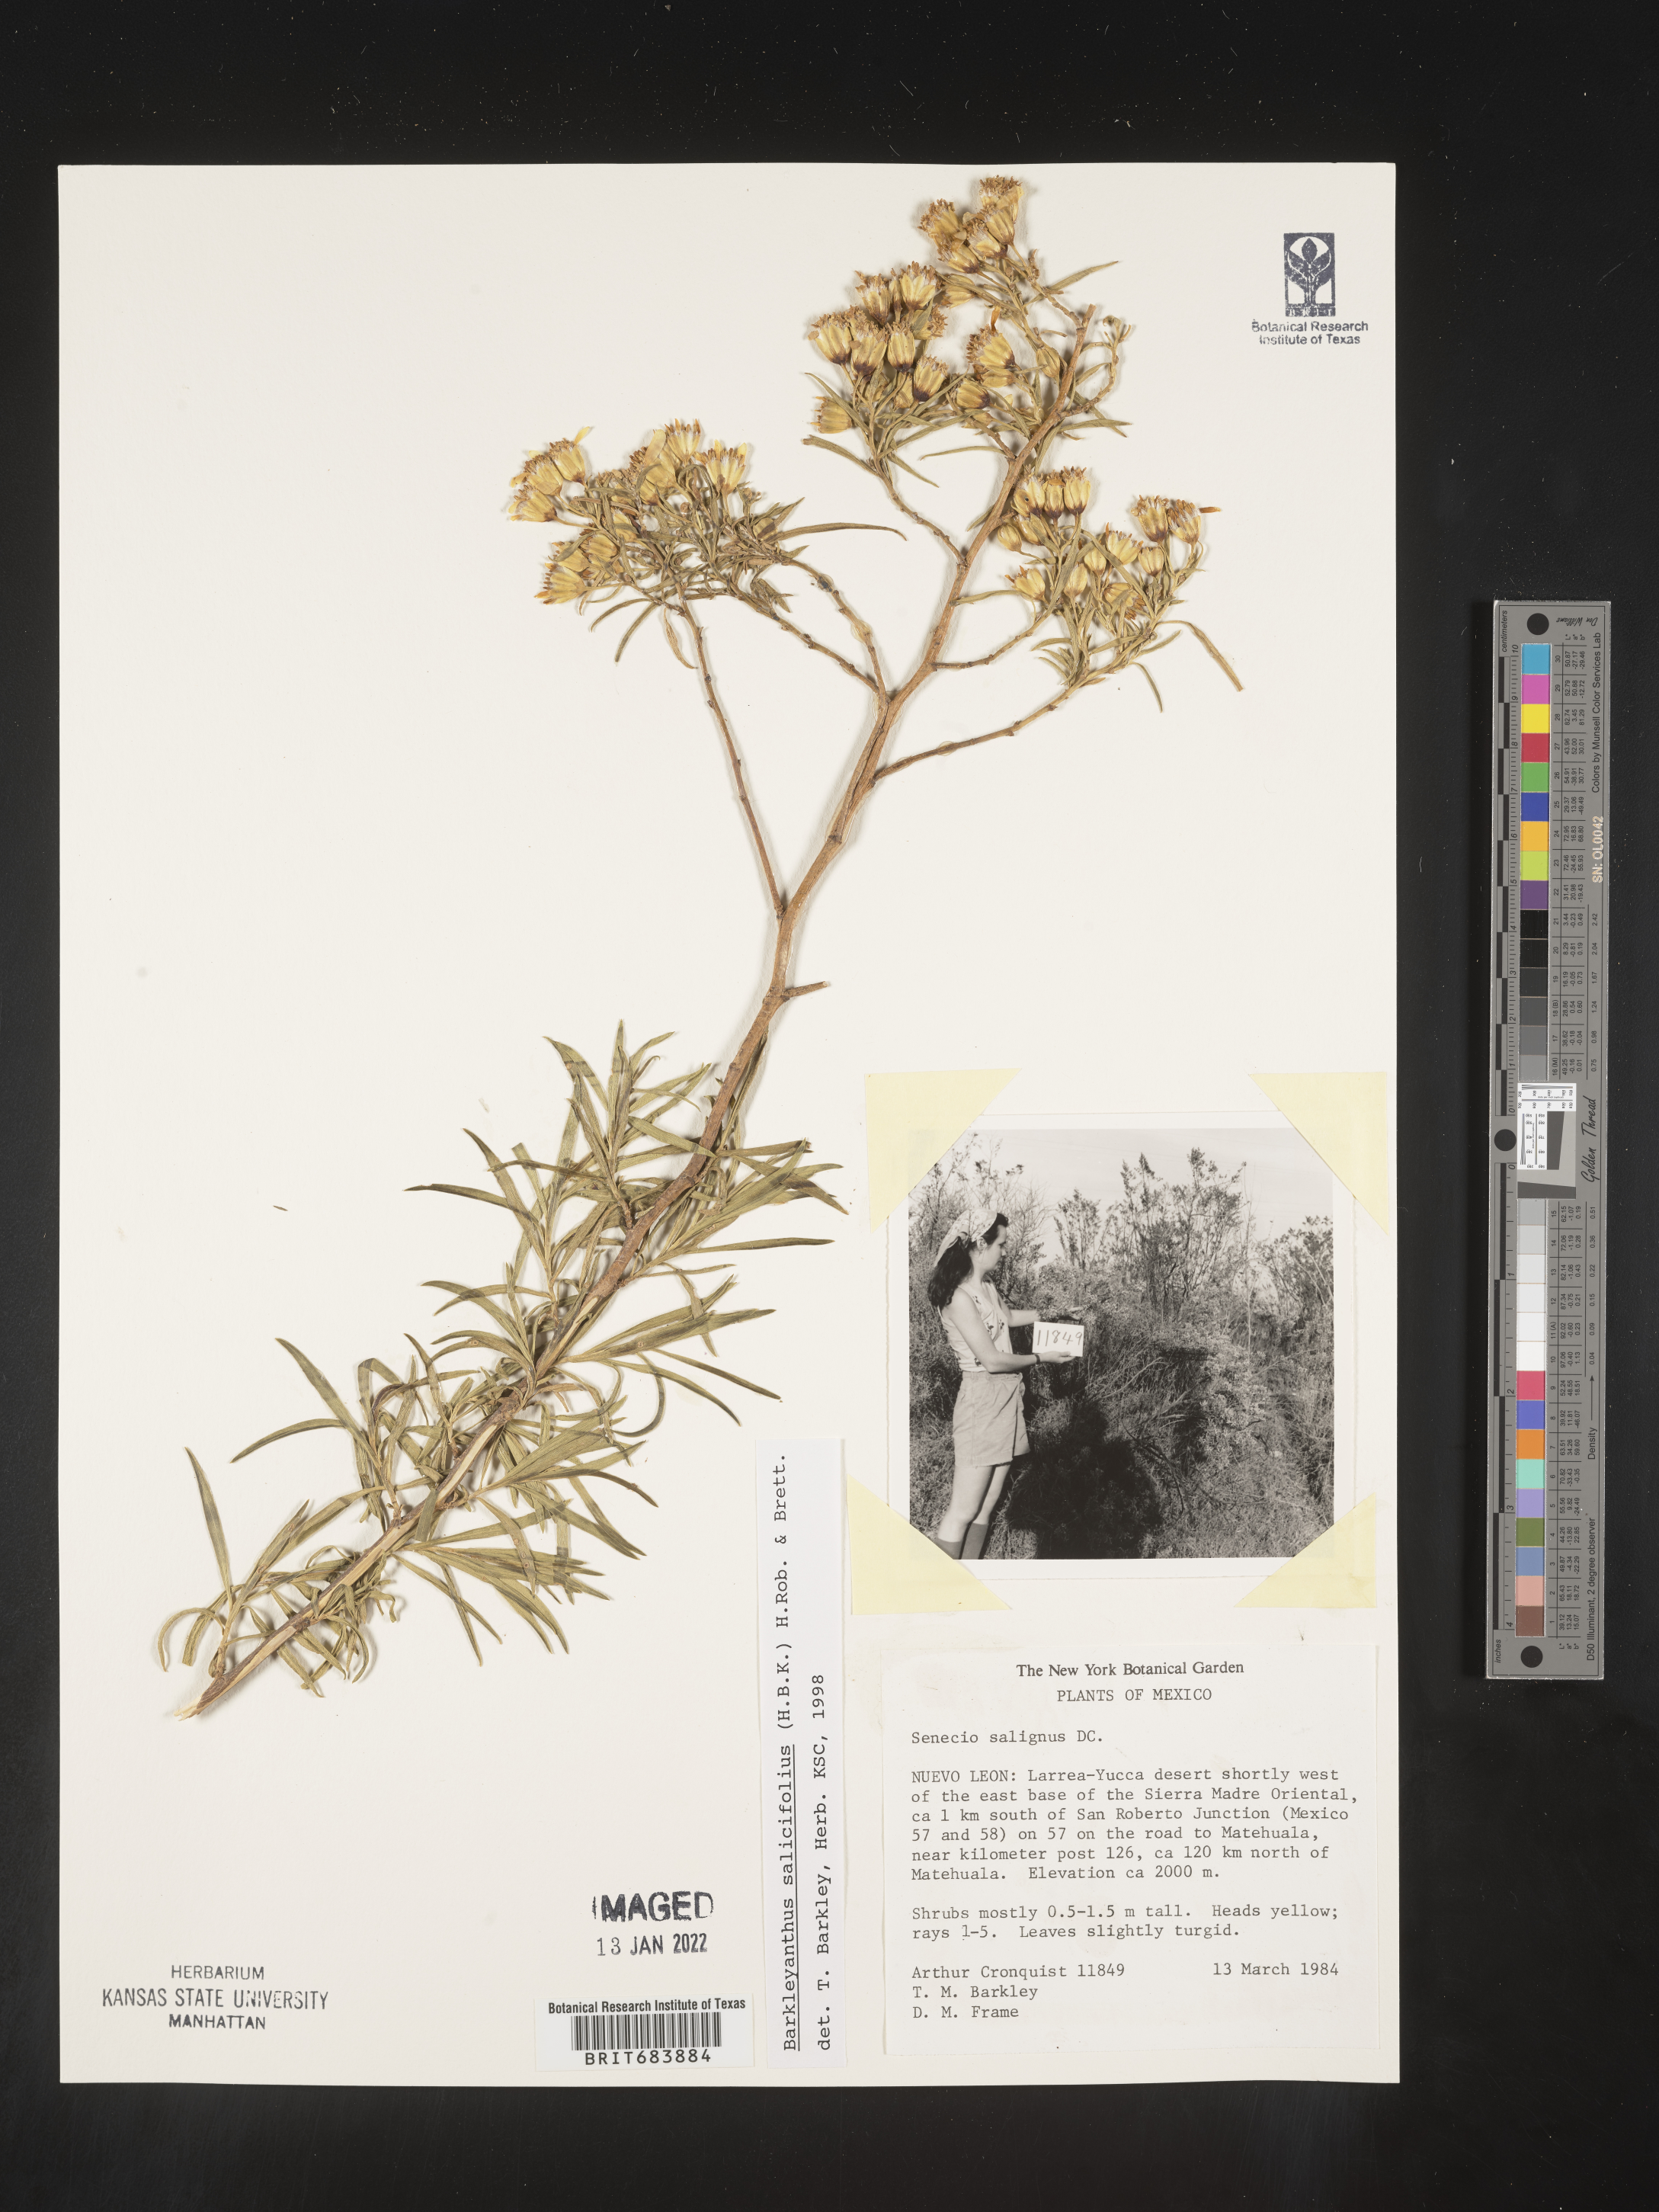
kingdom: Plantae
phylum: Tracheophyta
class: Magnoliopsida
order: Asterales
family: Asteraceae
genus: Barkleyanthus
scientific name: Barkleyanthus
